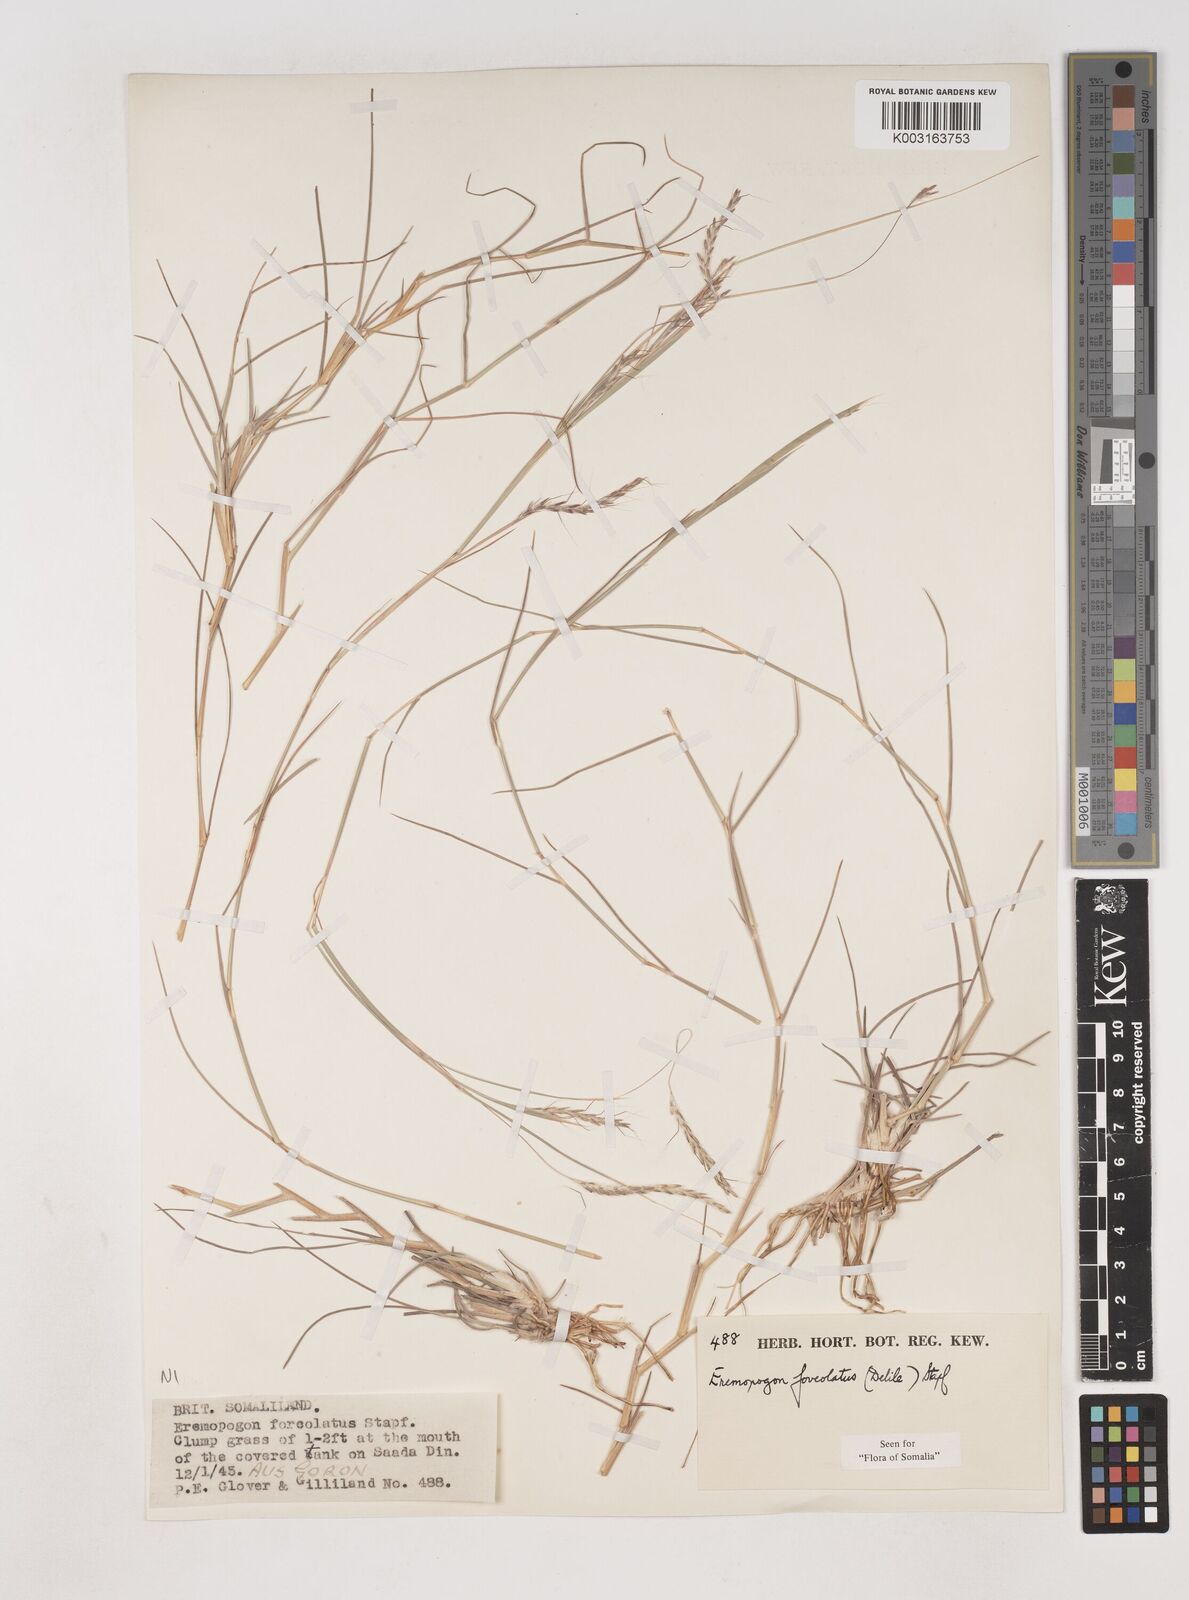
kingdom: Plantae
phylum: Tracheophyta
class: Liliopsida
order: Poales
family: Poaceae
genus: Dichanthium
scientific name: Dichanthium foveolatum
